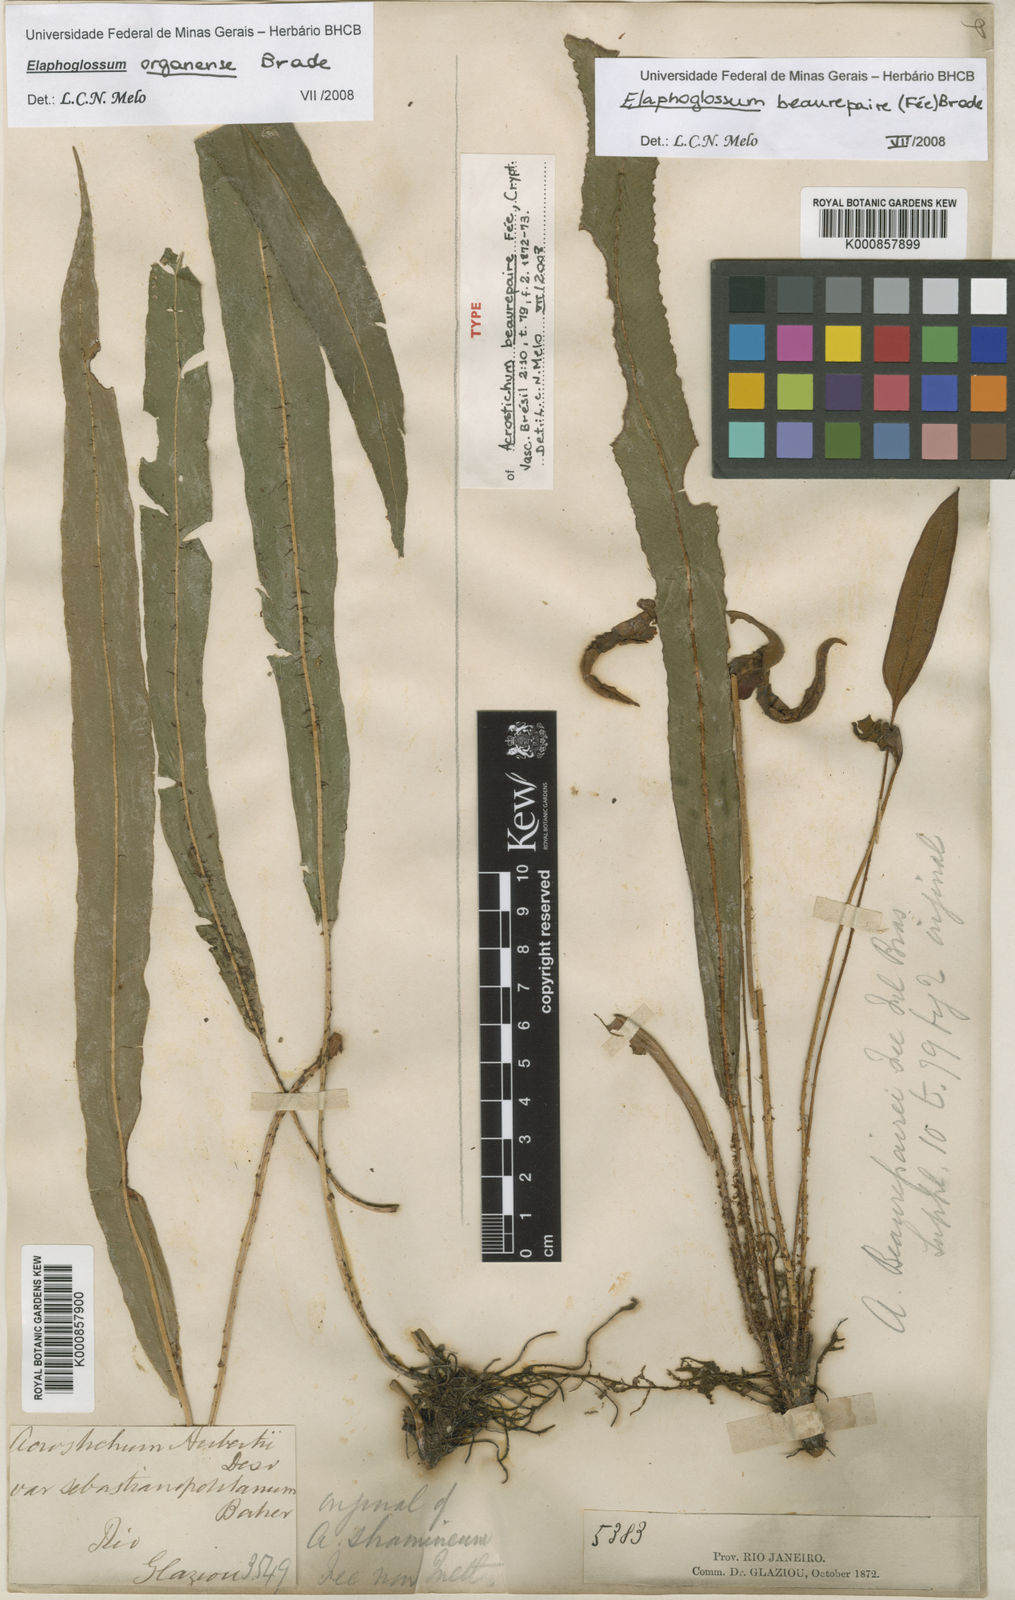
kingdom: Plantae
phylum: Tracheophyta
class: Polypodiopsida
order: Polypodiales
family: Dryopteridaceae
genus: Elaphoglossum
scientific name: Elaphoglossum
